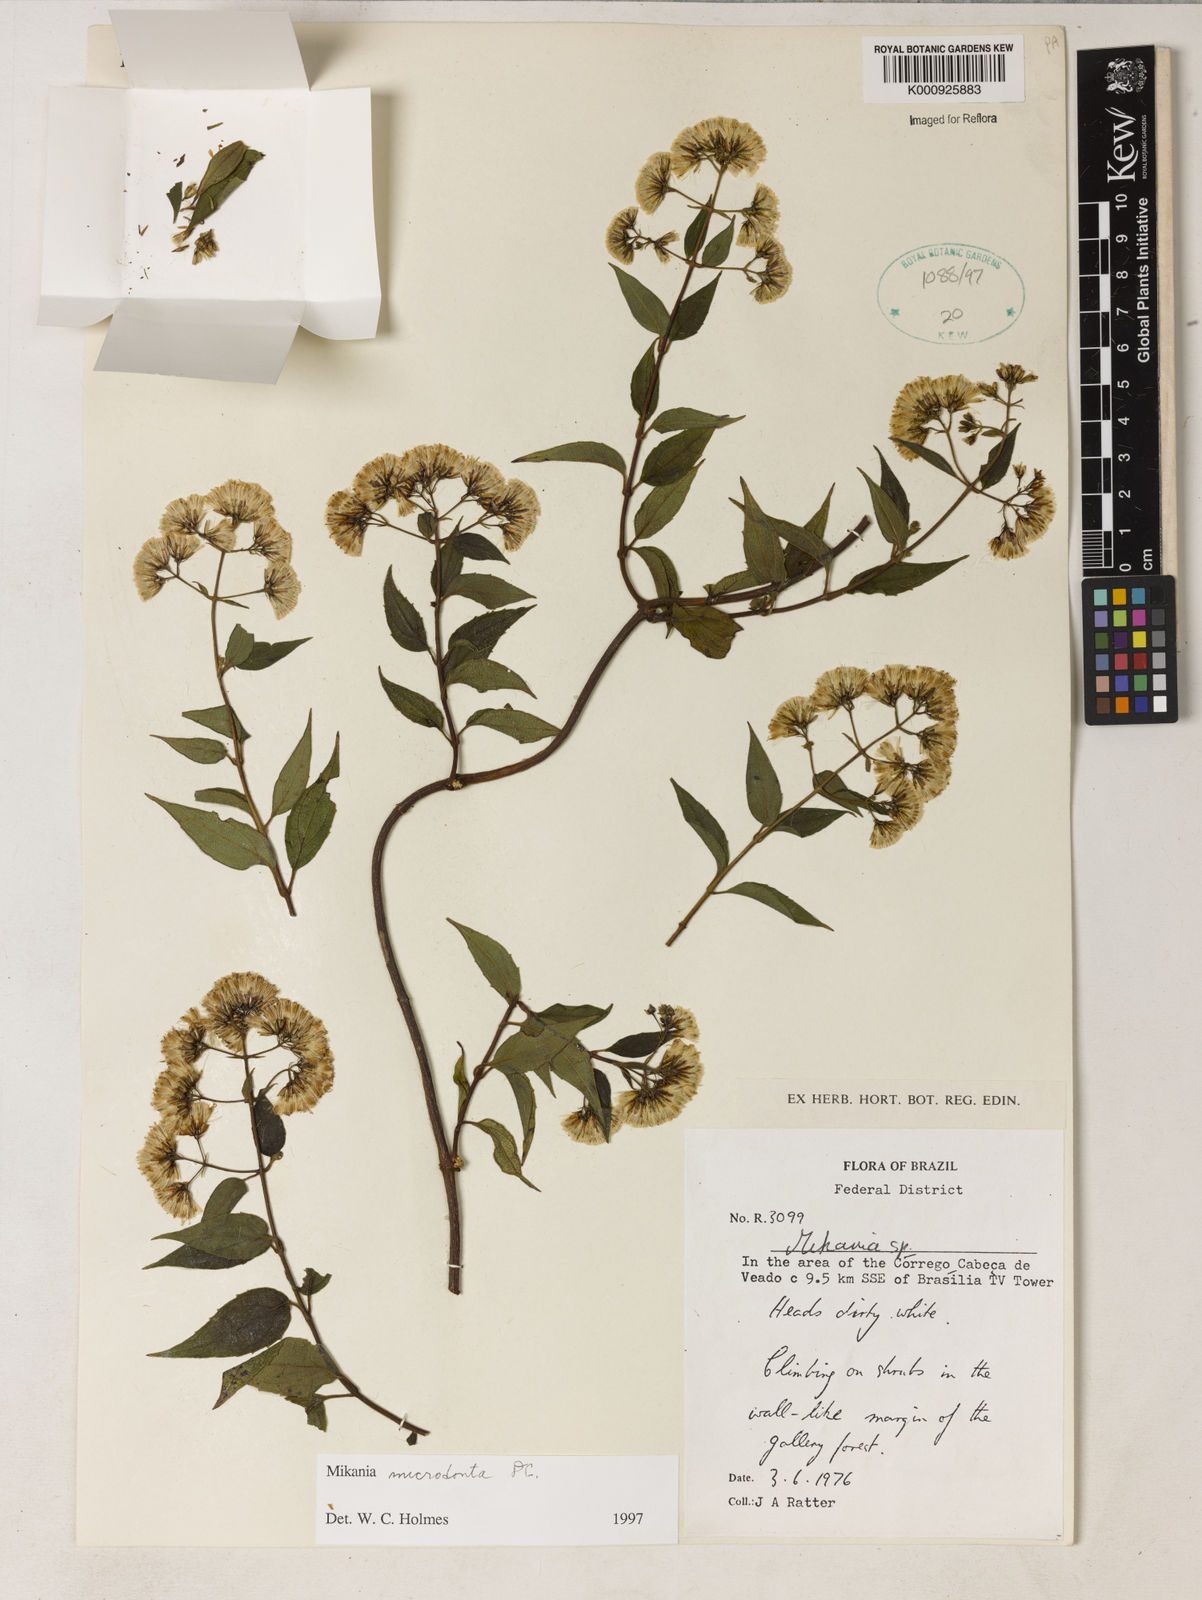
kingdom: Plantae
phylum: Tracheophyta
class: Magnoliopsida
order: Asterales
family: Asteraceae
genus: Mikania
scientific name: Mikania microdonta
